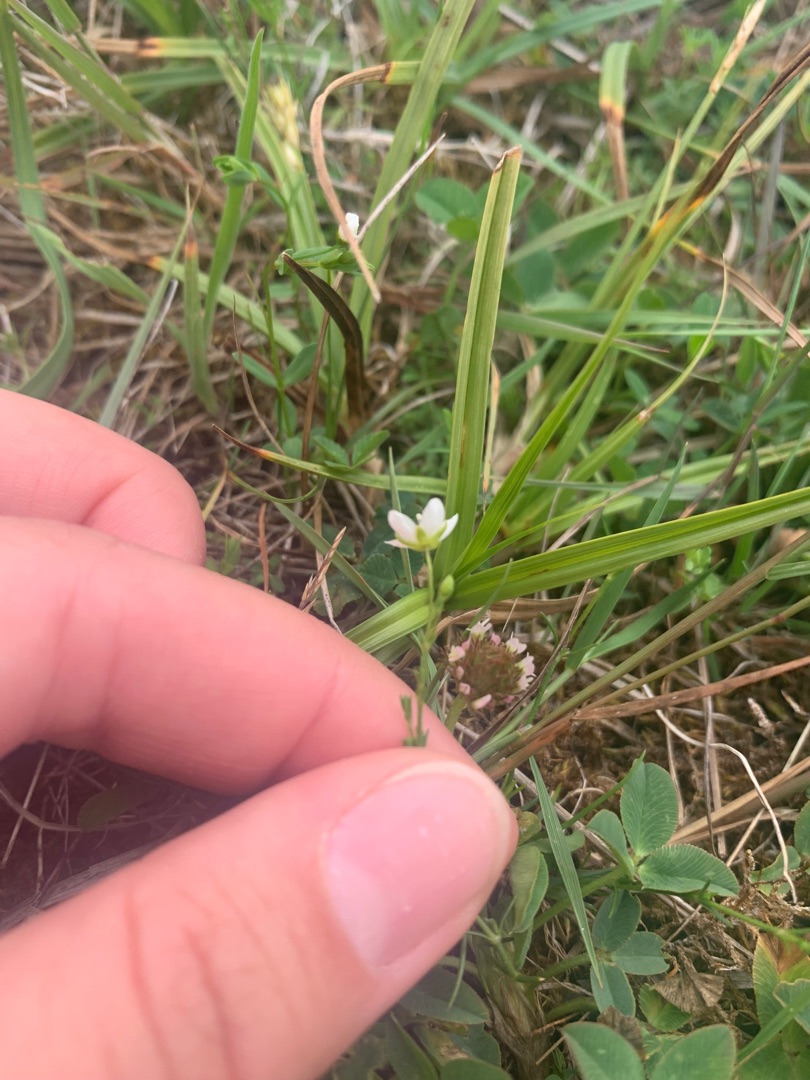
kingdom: Plantae
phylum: Tracheophyta
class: Magnoliopsida
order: Caryophyllales
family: Caryophyllaceae
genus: Sagina
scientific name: Sagina nodosa
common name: Knude-firling
